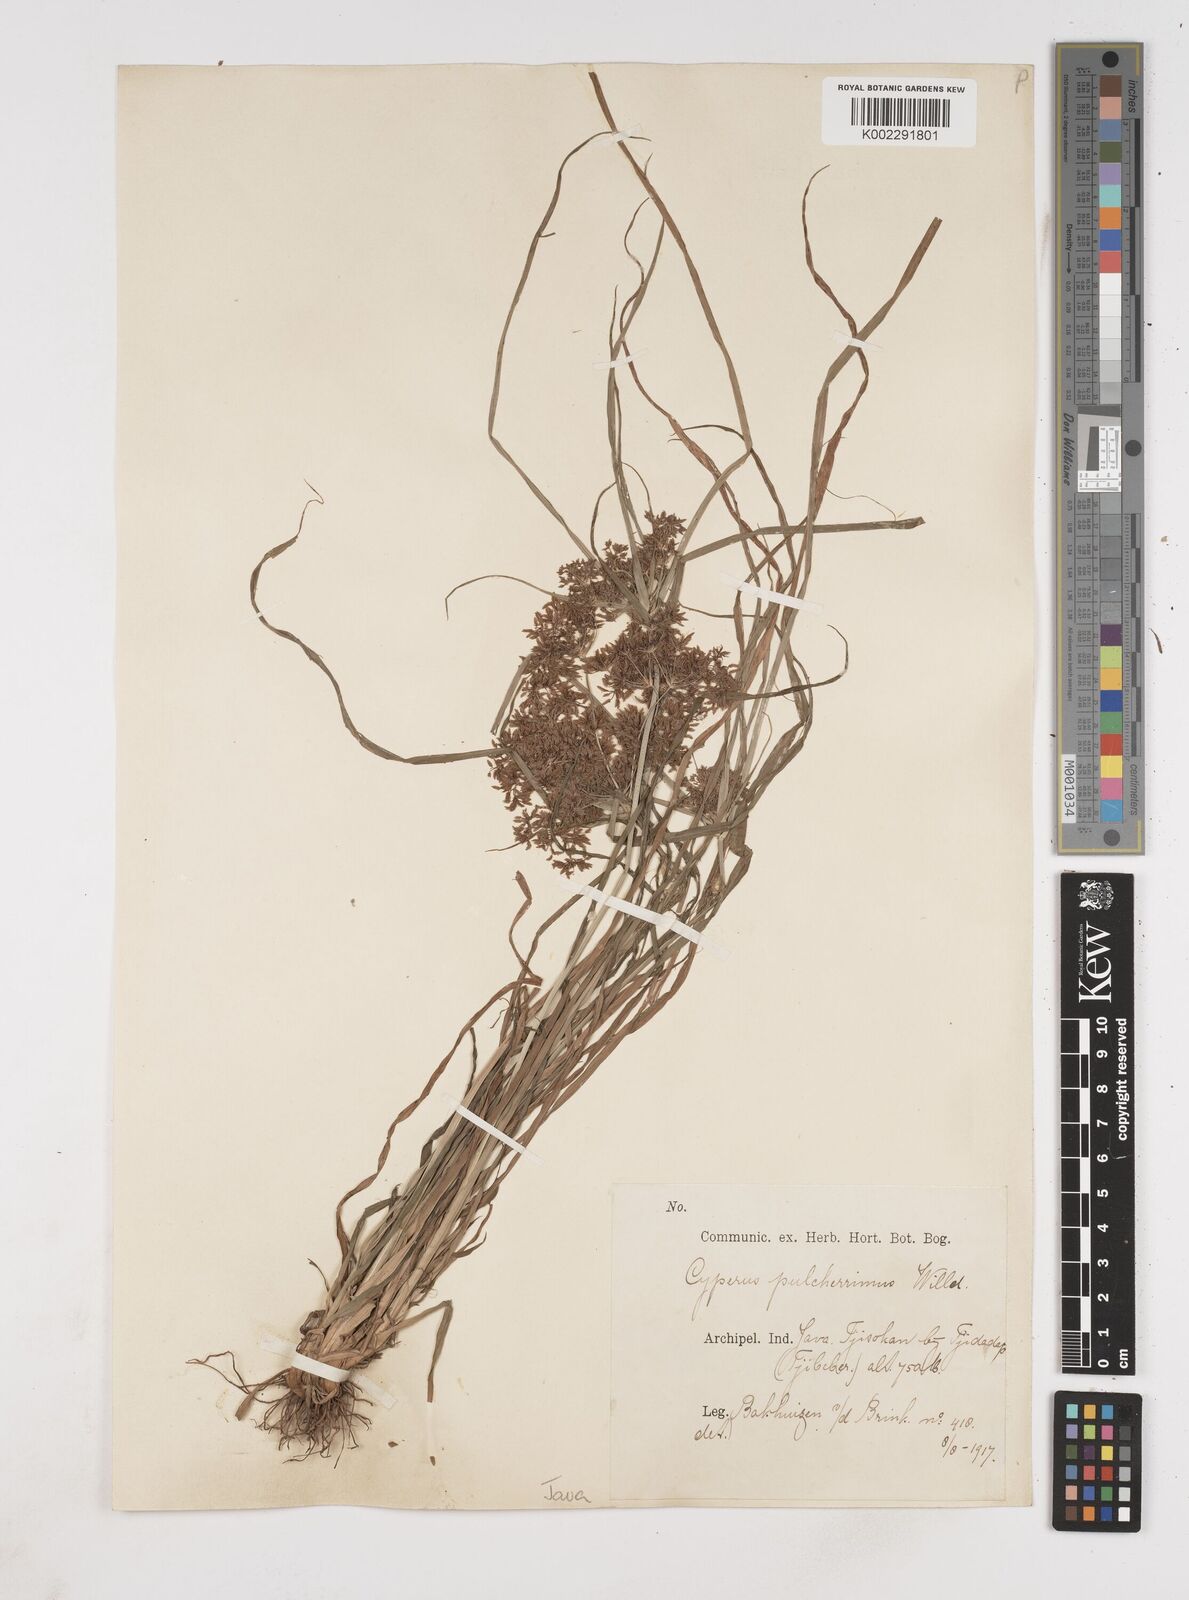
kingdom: Plantae
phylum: Tracheophyta
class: Liliopsida
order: Poales
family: Cyperaceae
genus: Cyperus
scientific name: Cyperus pulcherrimus
